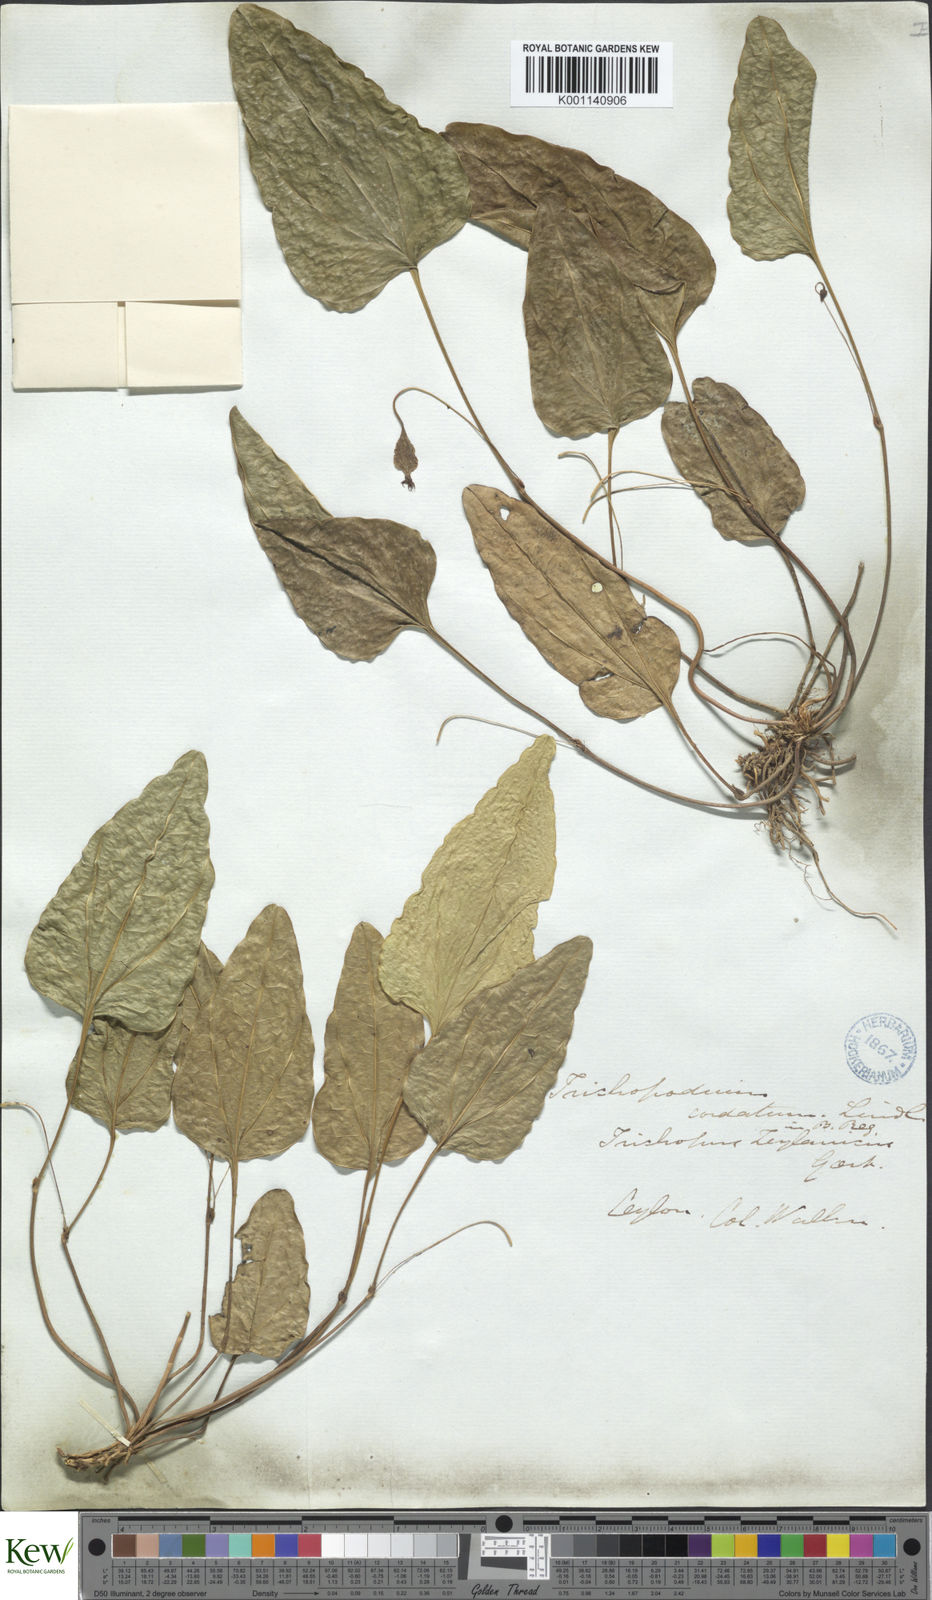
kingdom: Plantae
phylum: Tracheophyta
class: Liliopsida
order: Dioscoreales
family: Dioscoreaceae
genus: Trichopus
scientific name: Trichopus zeylanicus
